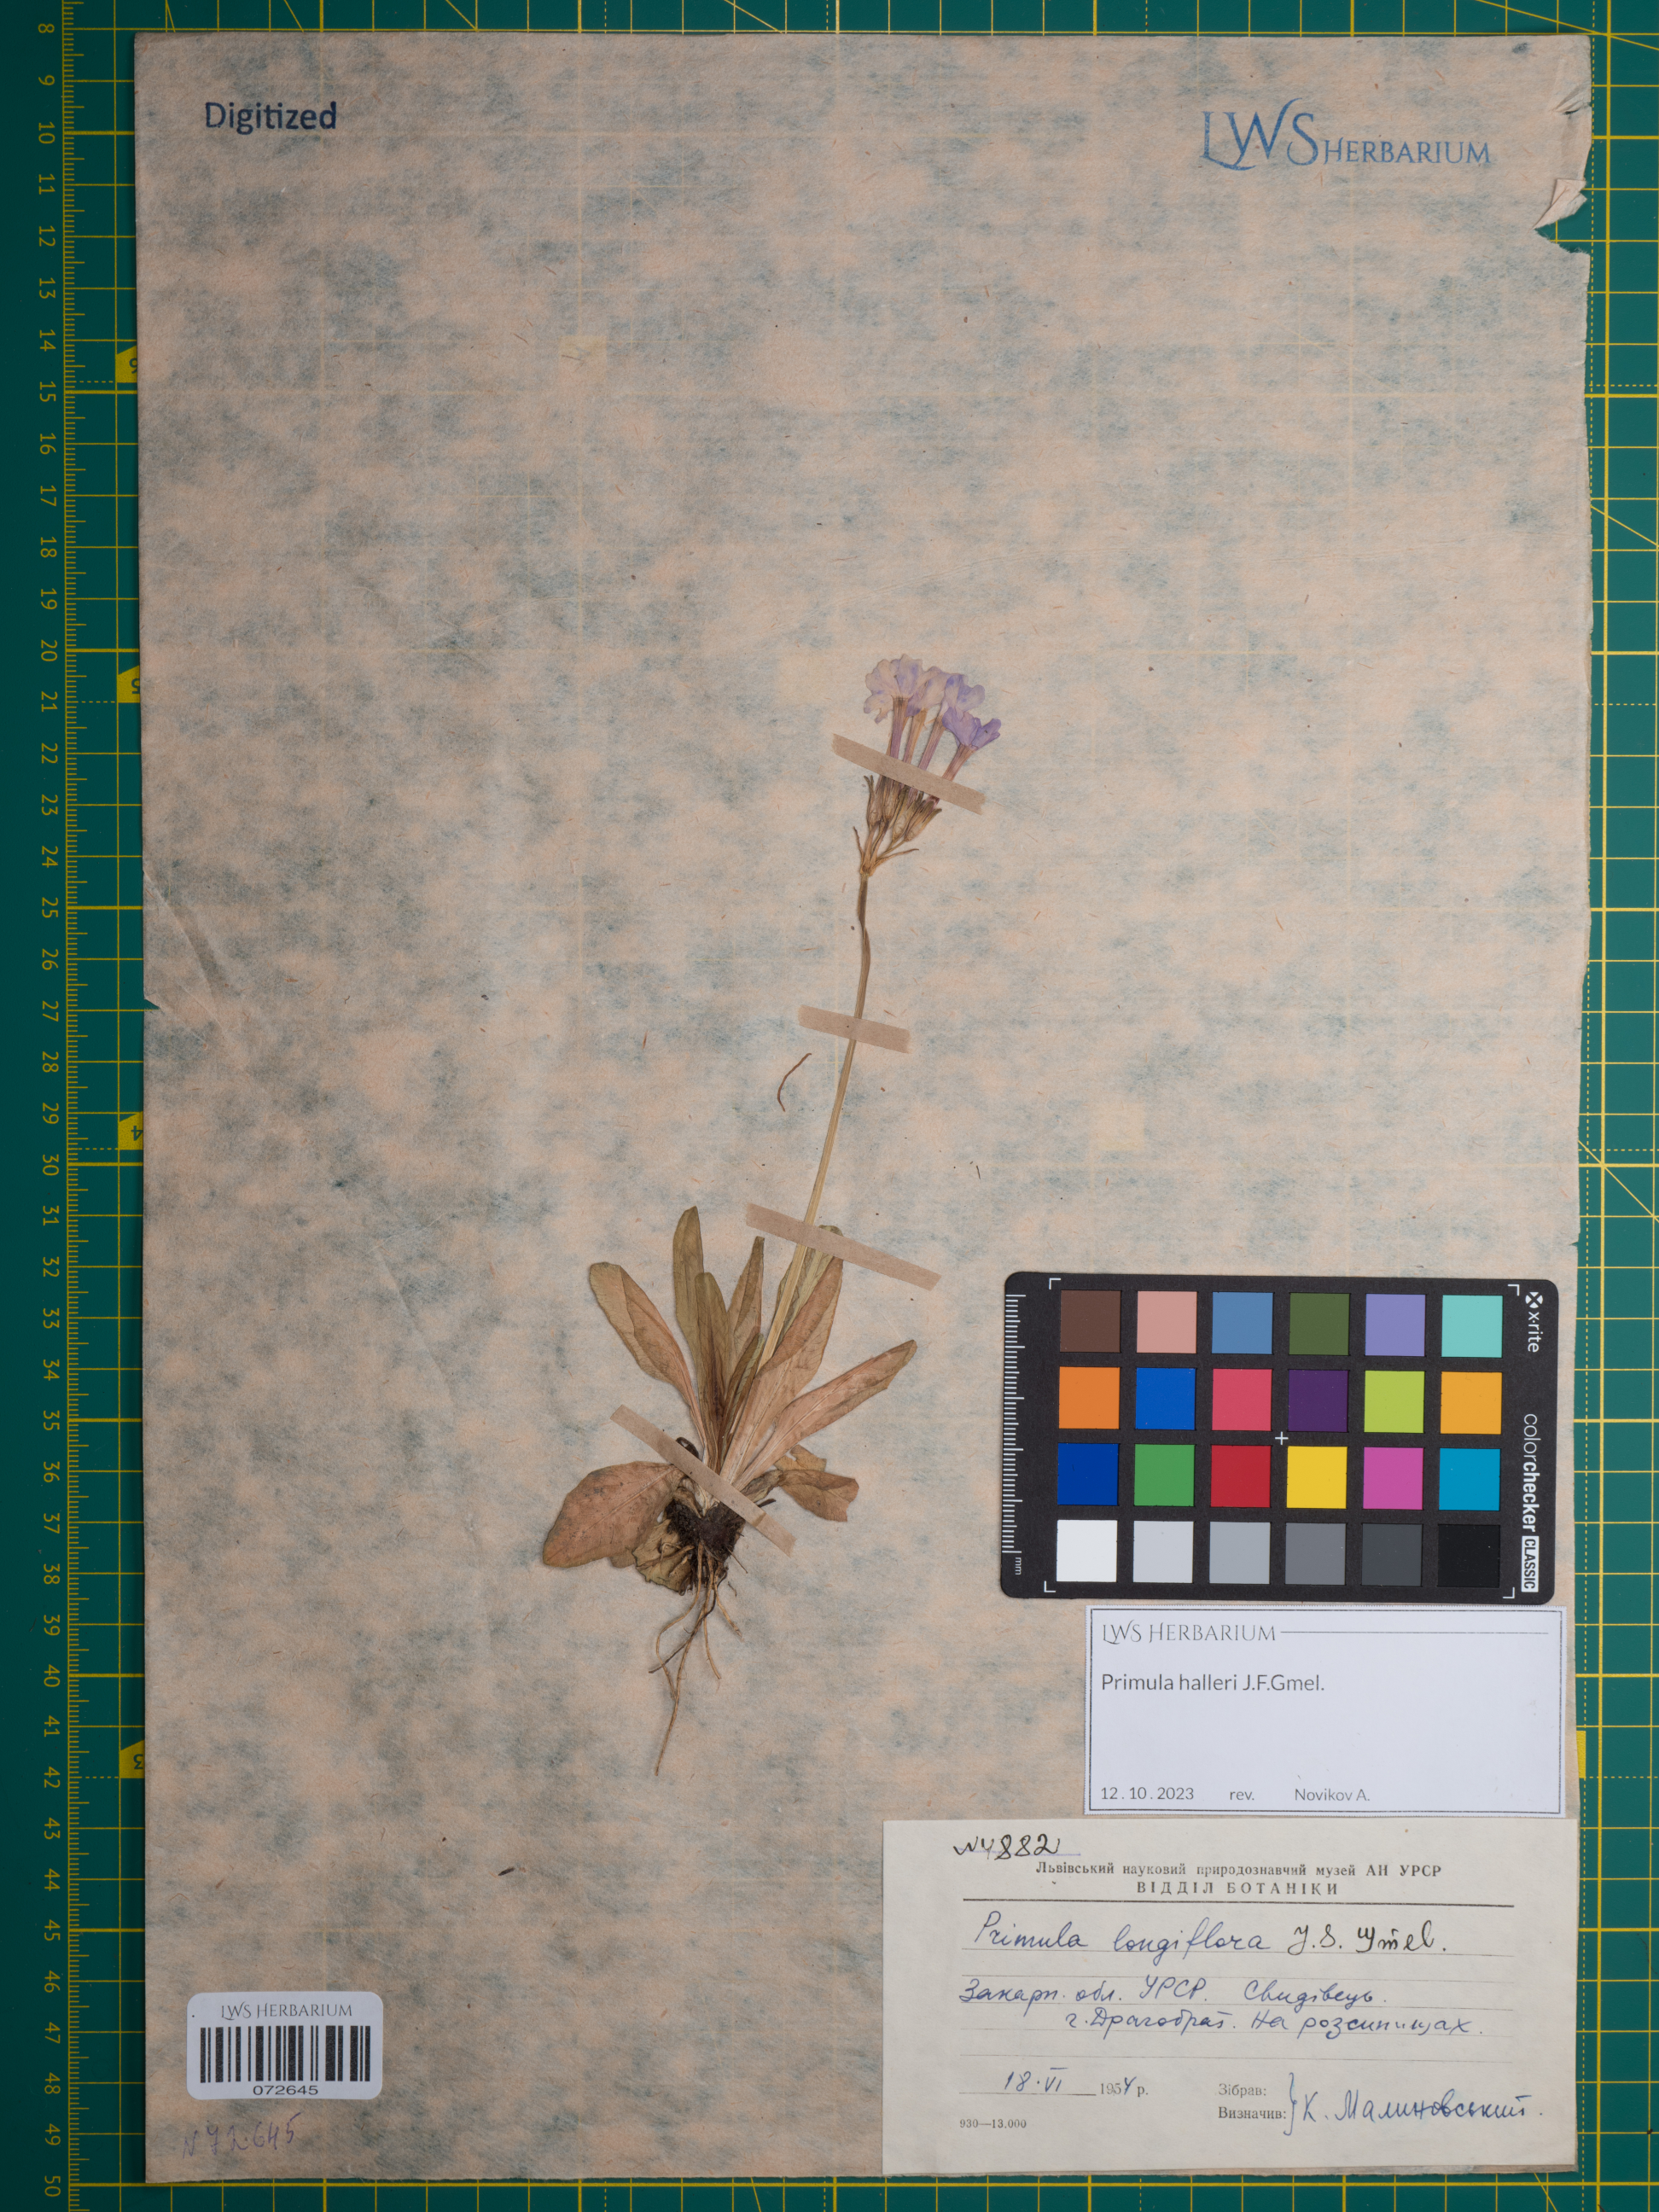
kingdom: Plantae
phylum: Tracheophyta
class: Magnoliopsida
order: Ericales
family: Primulaceae
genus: Primula
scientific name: Primula halleri
